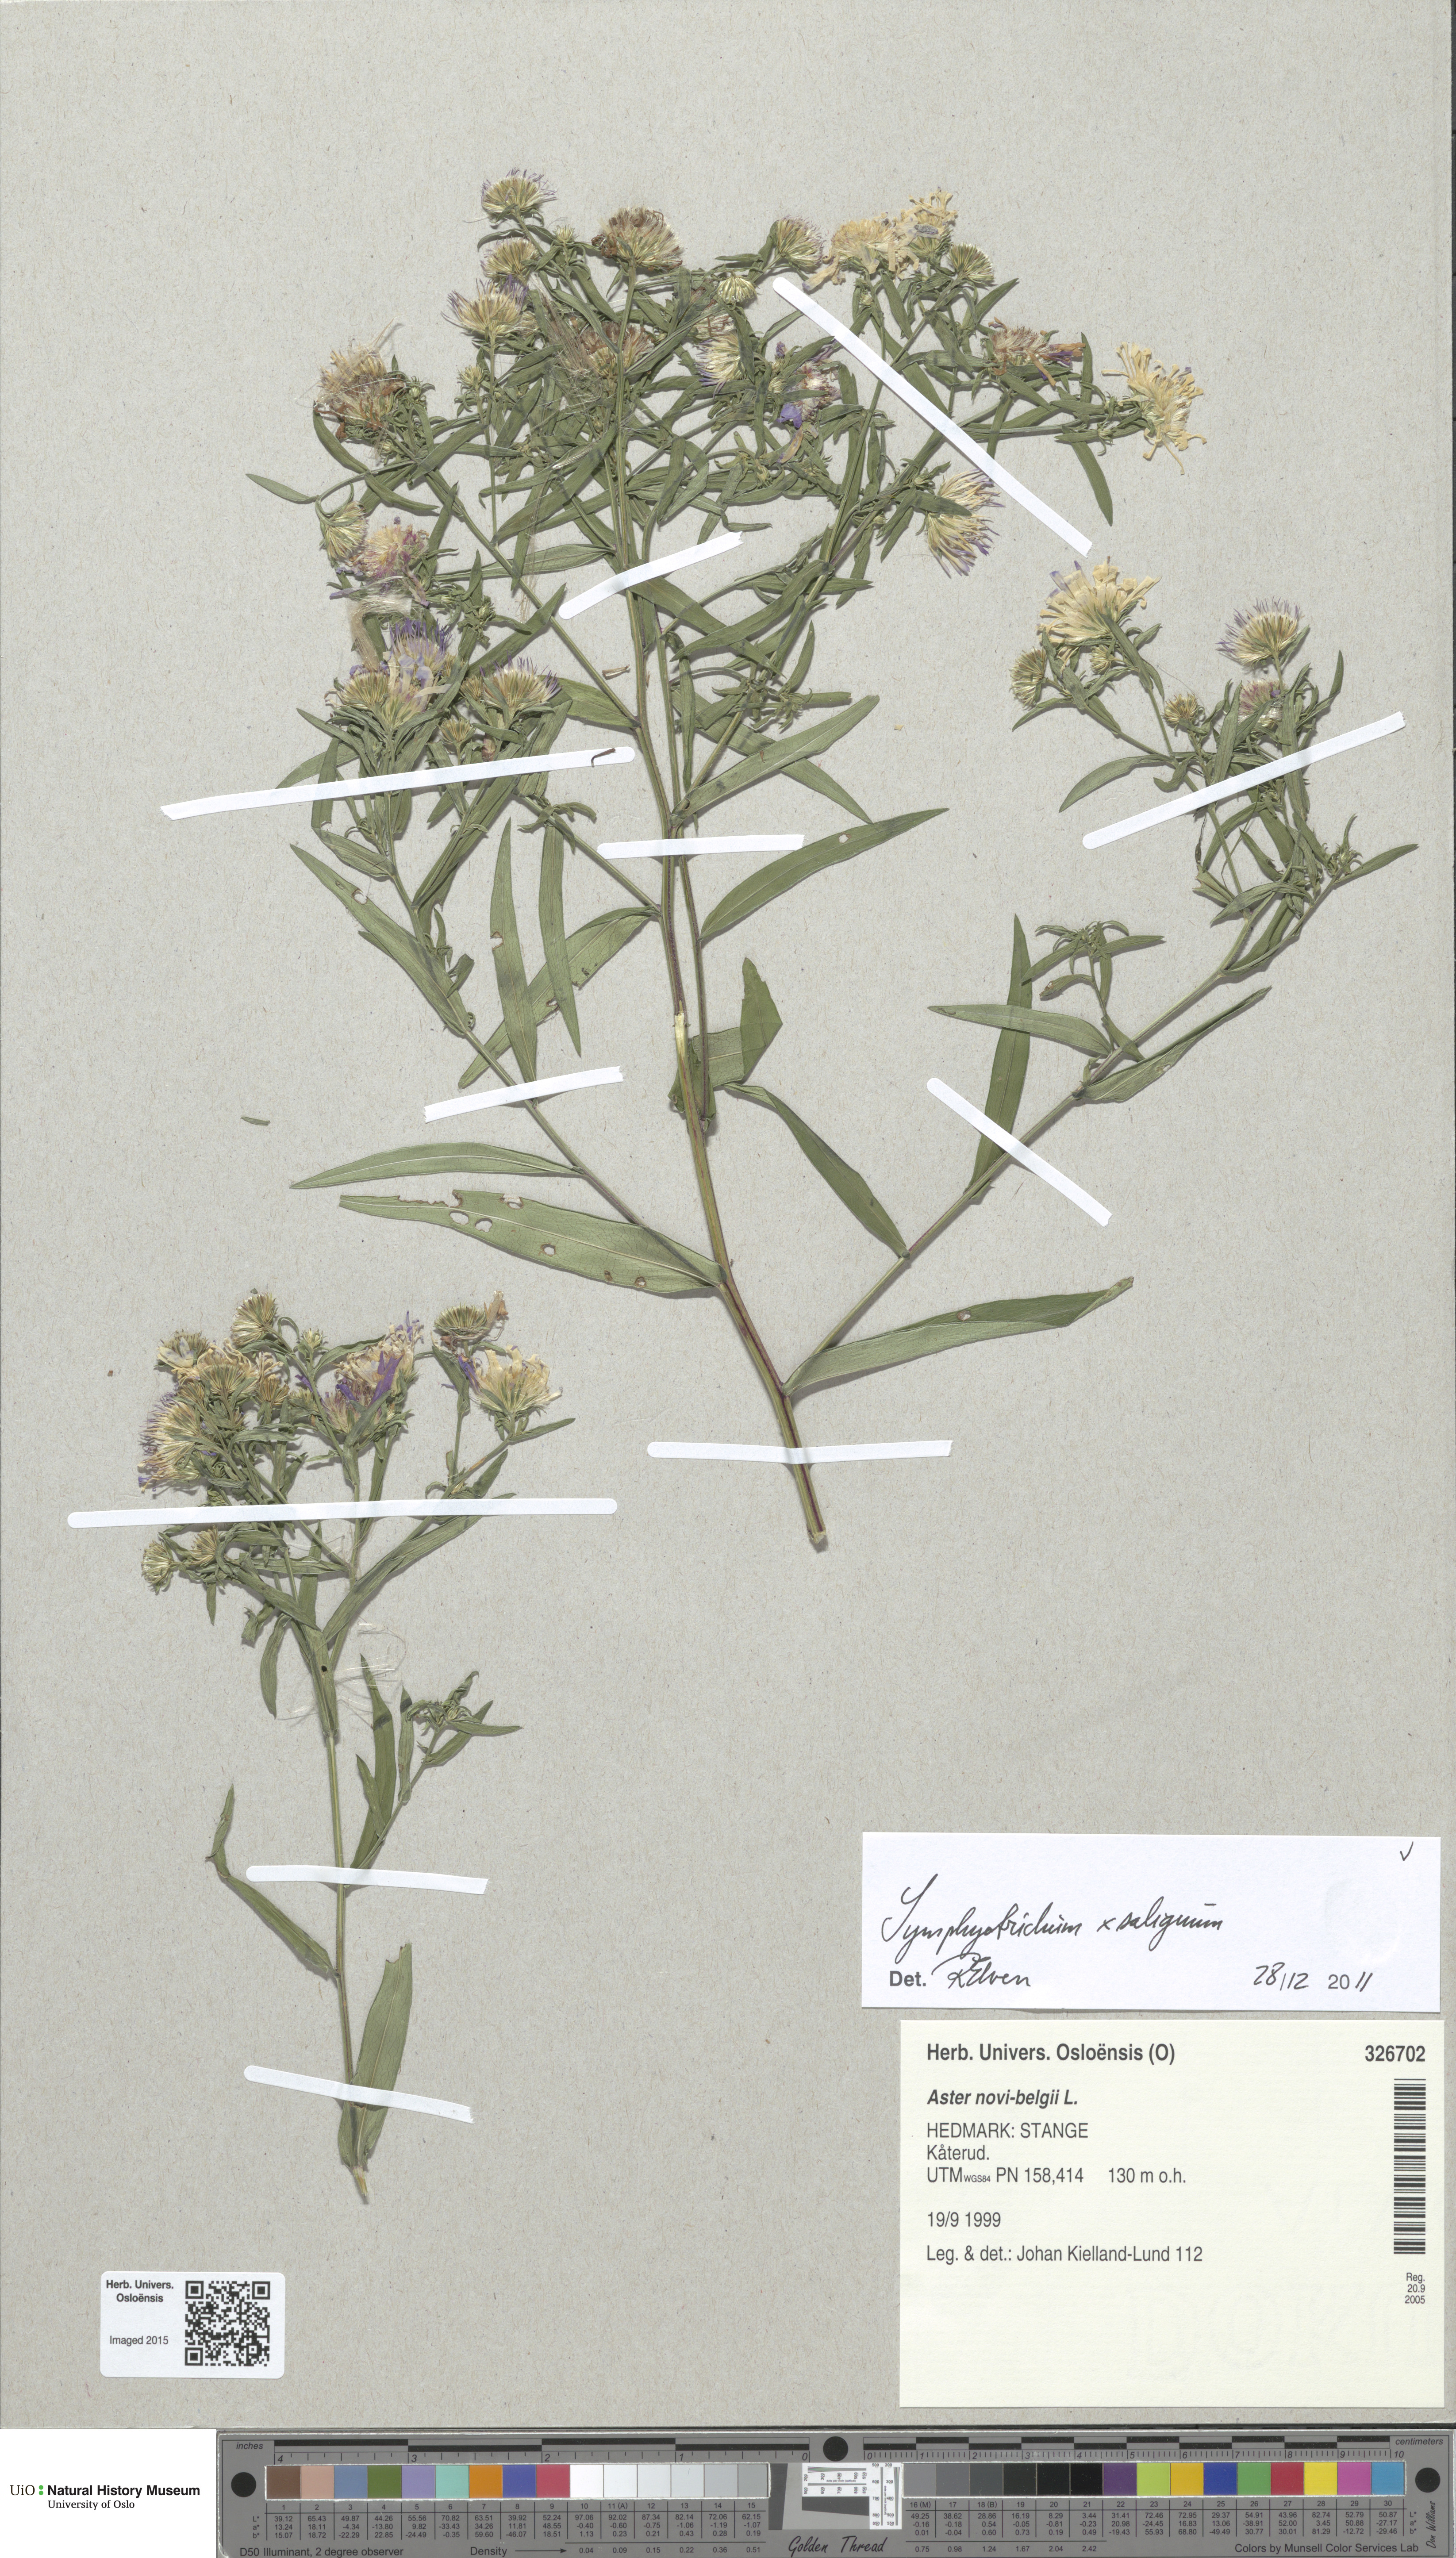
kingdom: Plantae
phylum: Tracheophyta
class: Magnoliopsida
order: Asterales
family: Asteraceae
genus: Symphyotrichum
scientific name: Symphyotrichum lanceolatum
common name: Panicled aster
